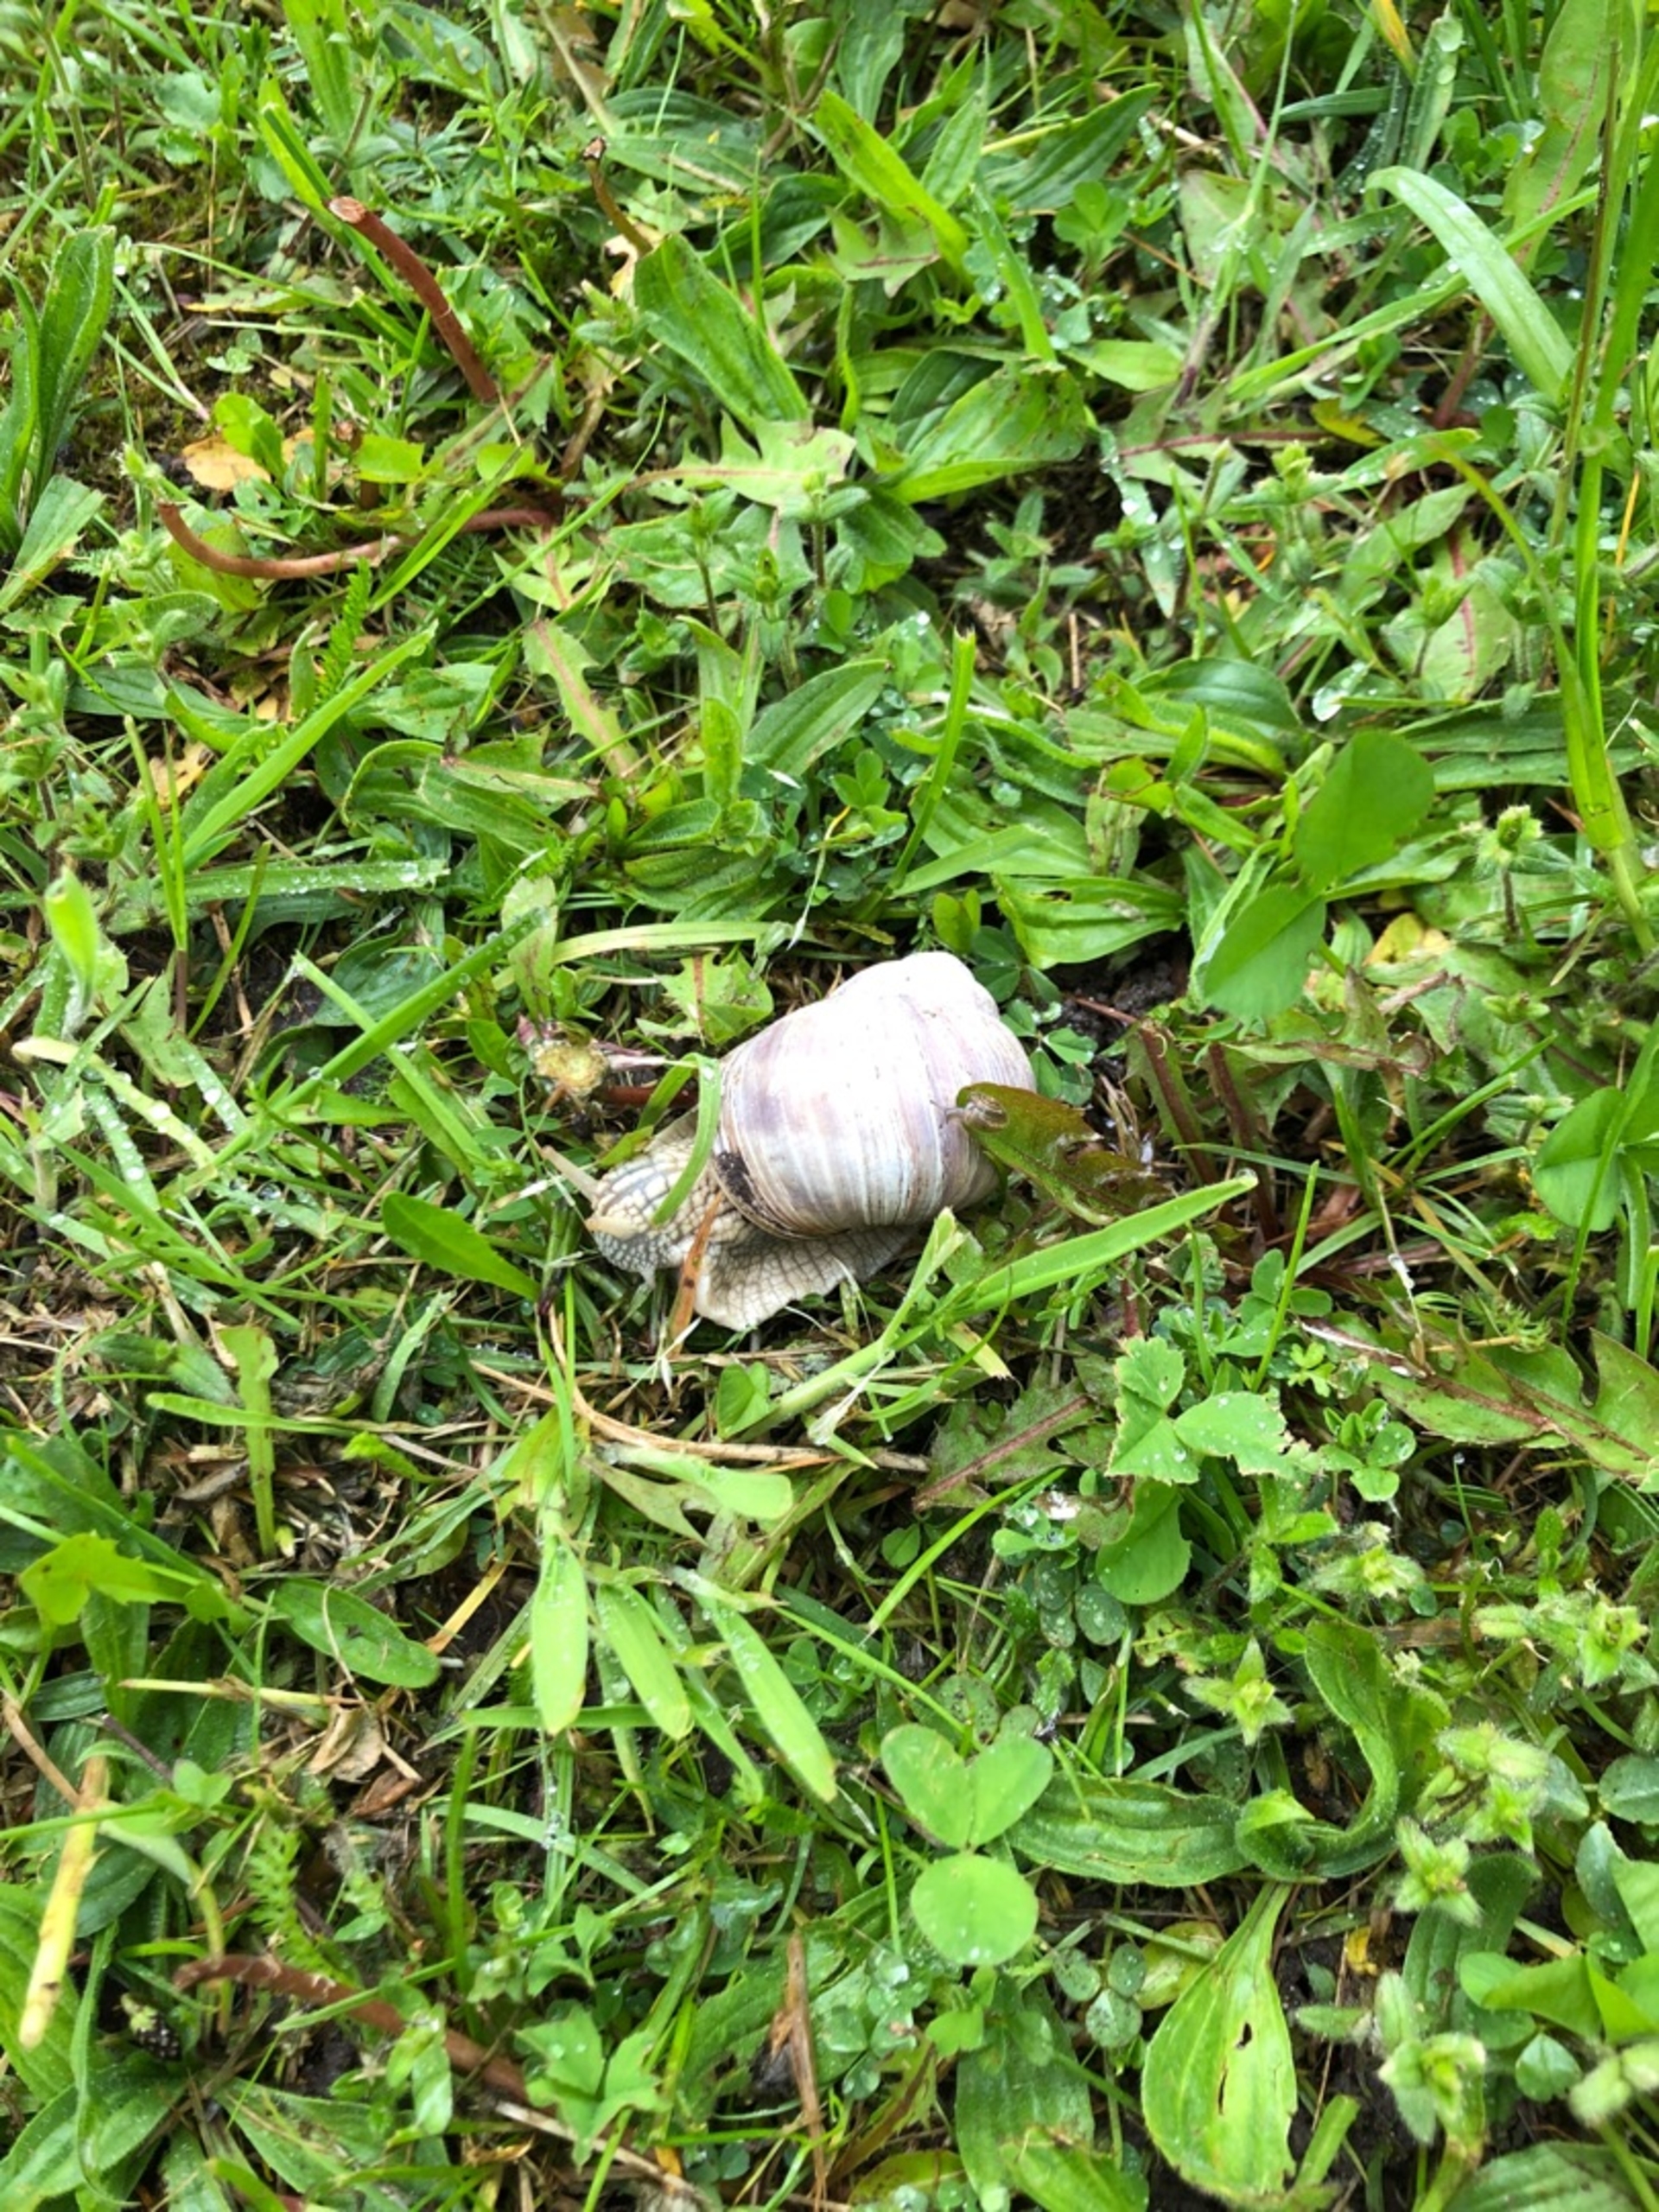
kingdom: Animalia
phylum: Mollusca
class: Gastropoda
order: Stylommatophora
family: Helicidae
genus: Helix
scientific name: Helix pomatia
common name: Vinbjergsnegl
